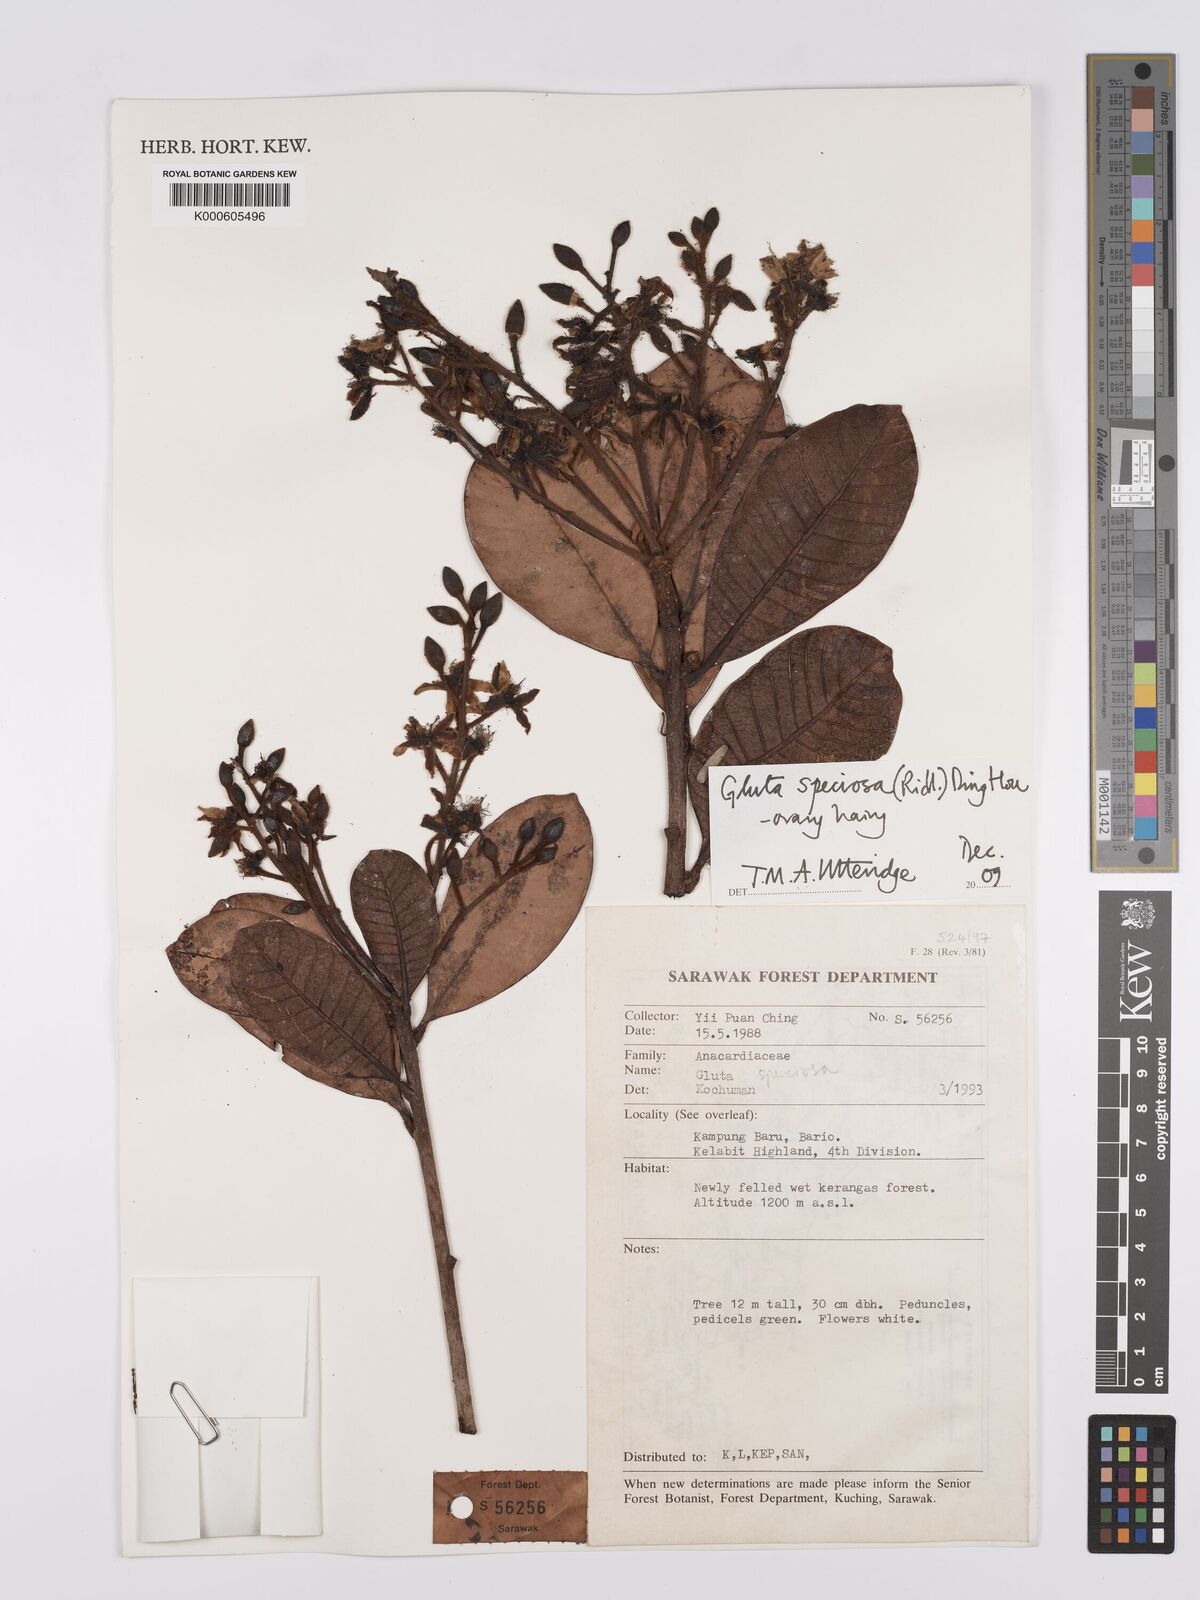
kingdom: Plantae
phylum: Tracheophyta
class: Magnoliopsida
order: Sapindales
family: Anacardiaceae
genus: Gluta
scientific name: Gluta speciosa
